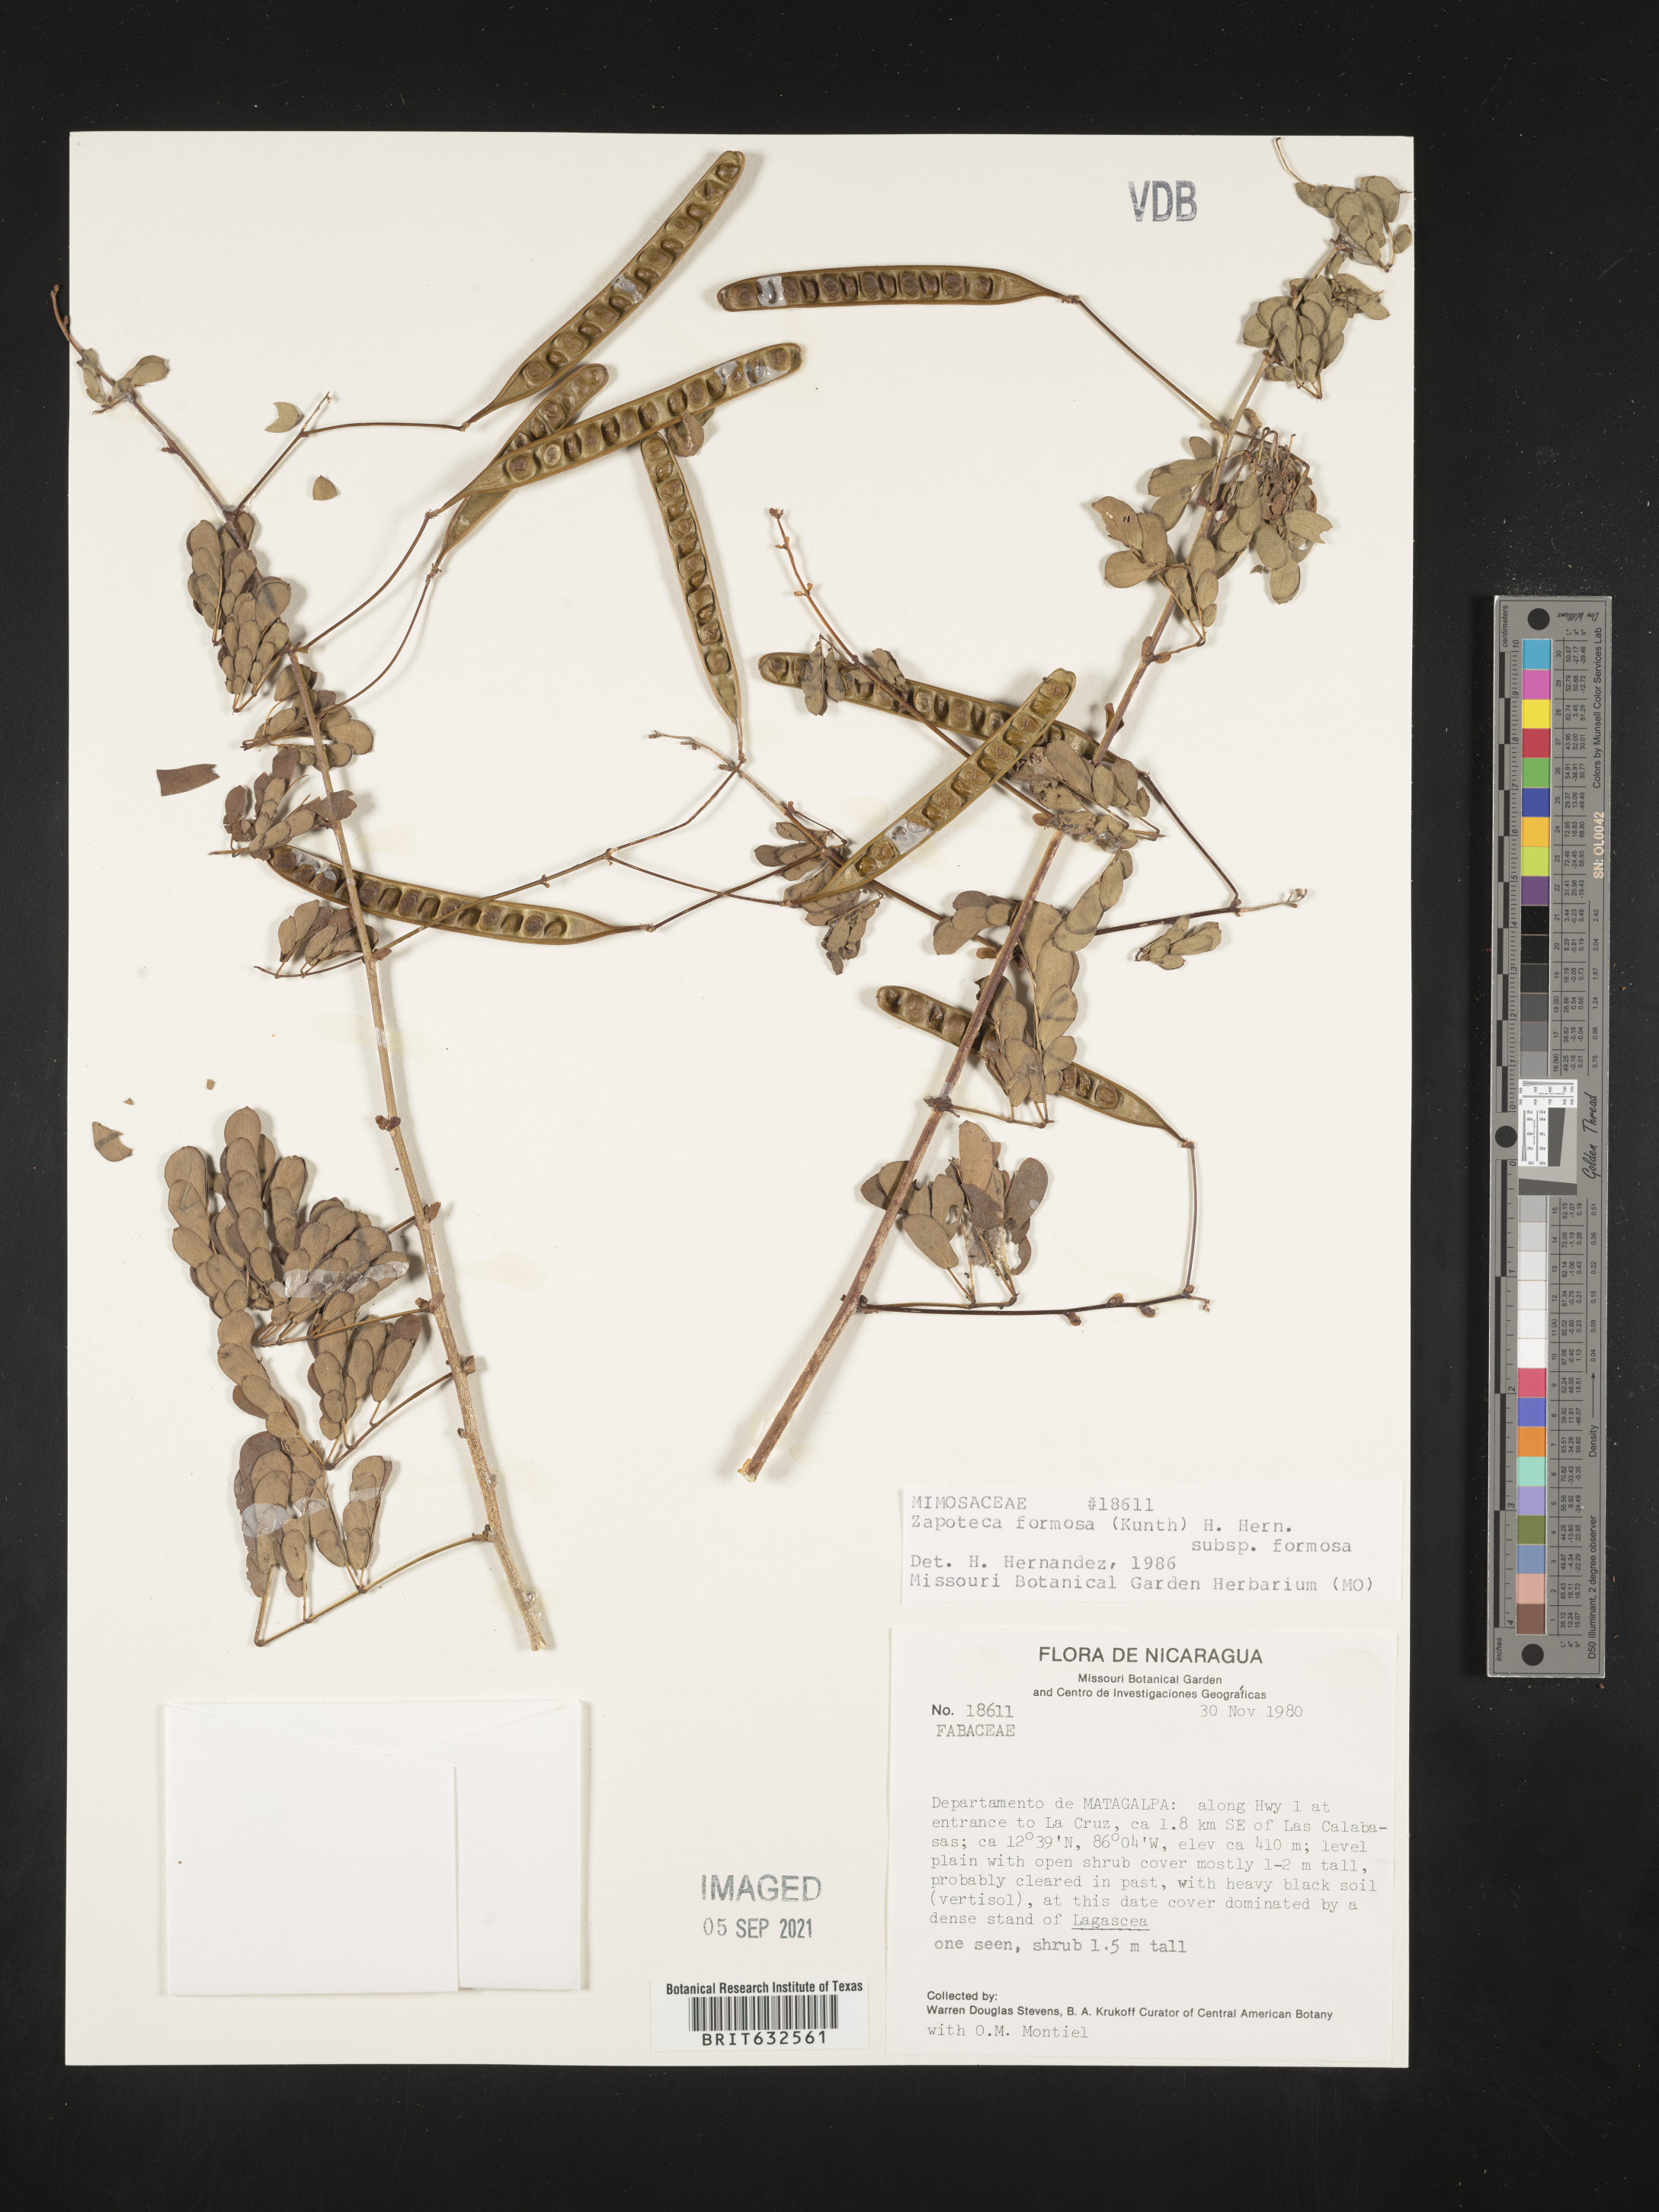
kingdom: Plantae
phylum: Tracheophyta
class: Magnoliopsida
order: Fabales
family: Fabaceae
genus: Zapoteca
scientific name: Zapoteca
